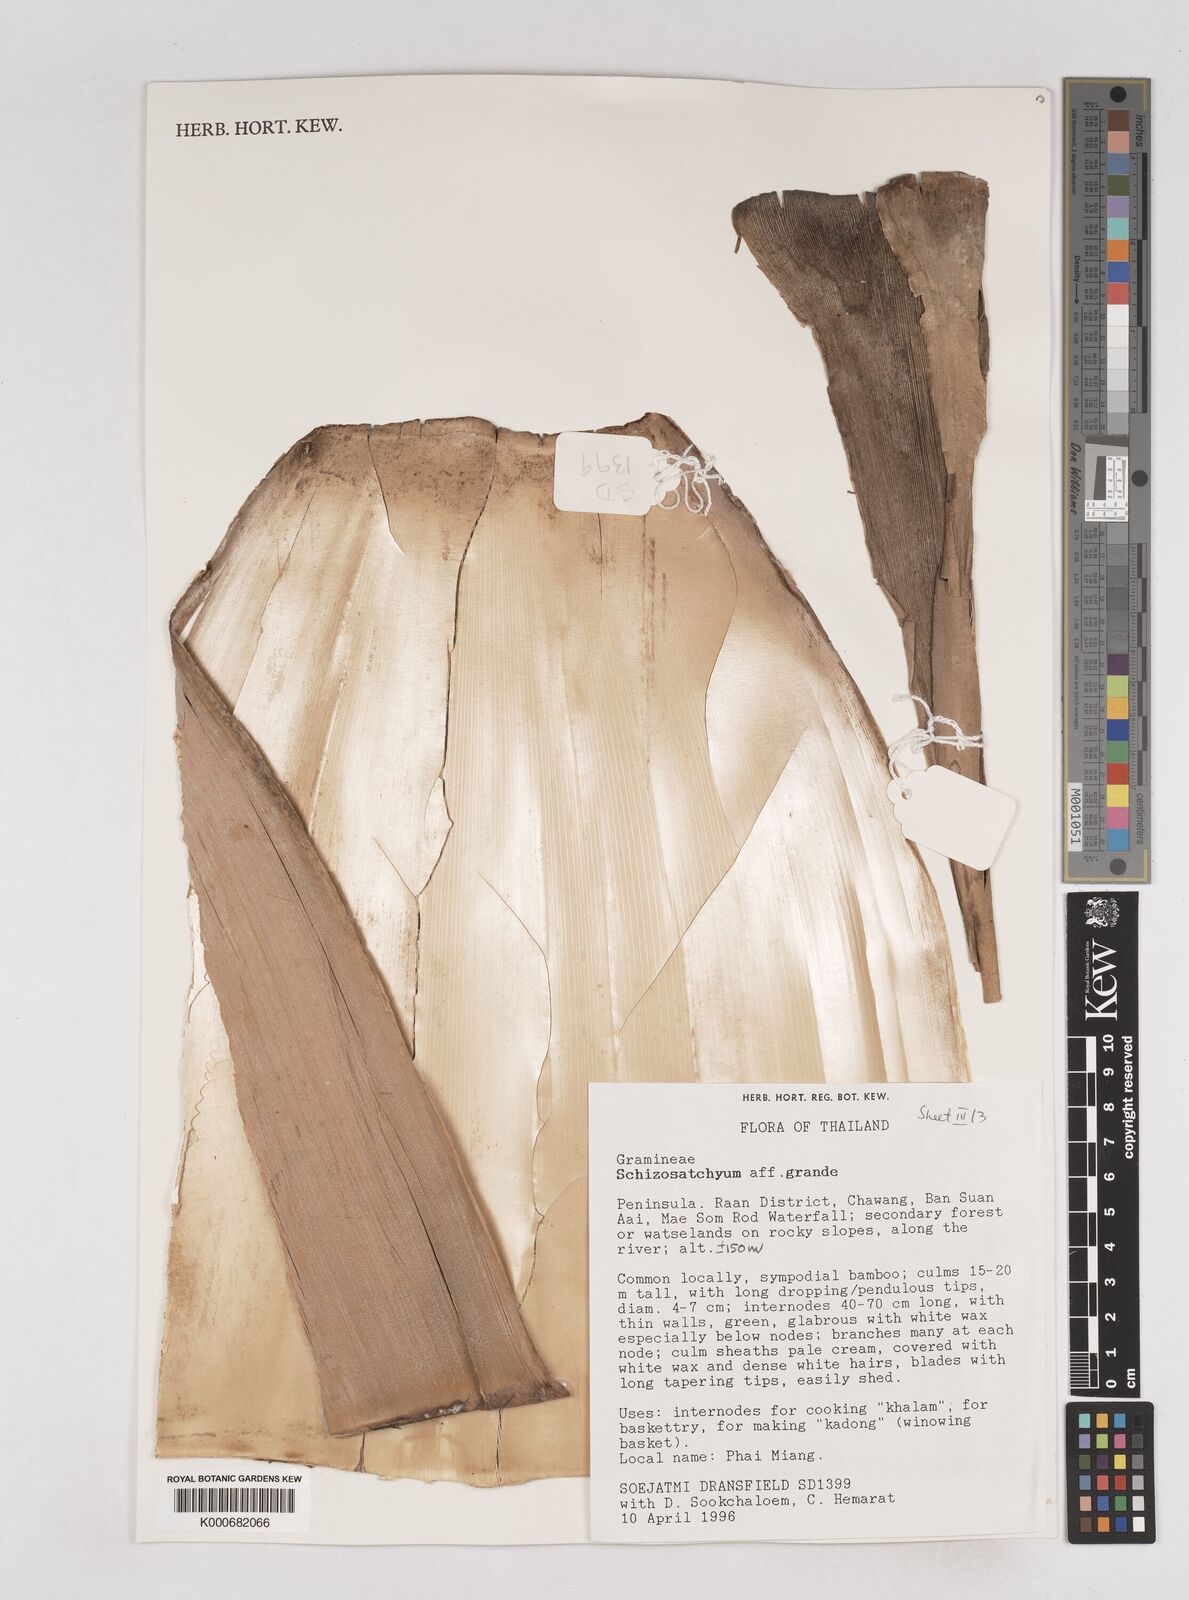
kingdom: Plantae
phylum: Tracheophyta
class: Liliopsida
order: Poales
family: Poaceae
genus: Schizostachyum
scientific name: Schizostachyum grande
